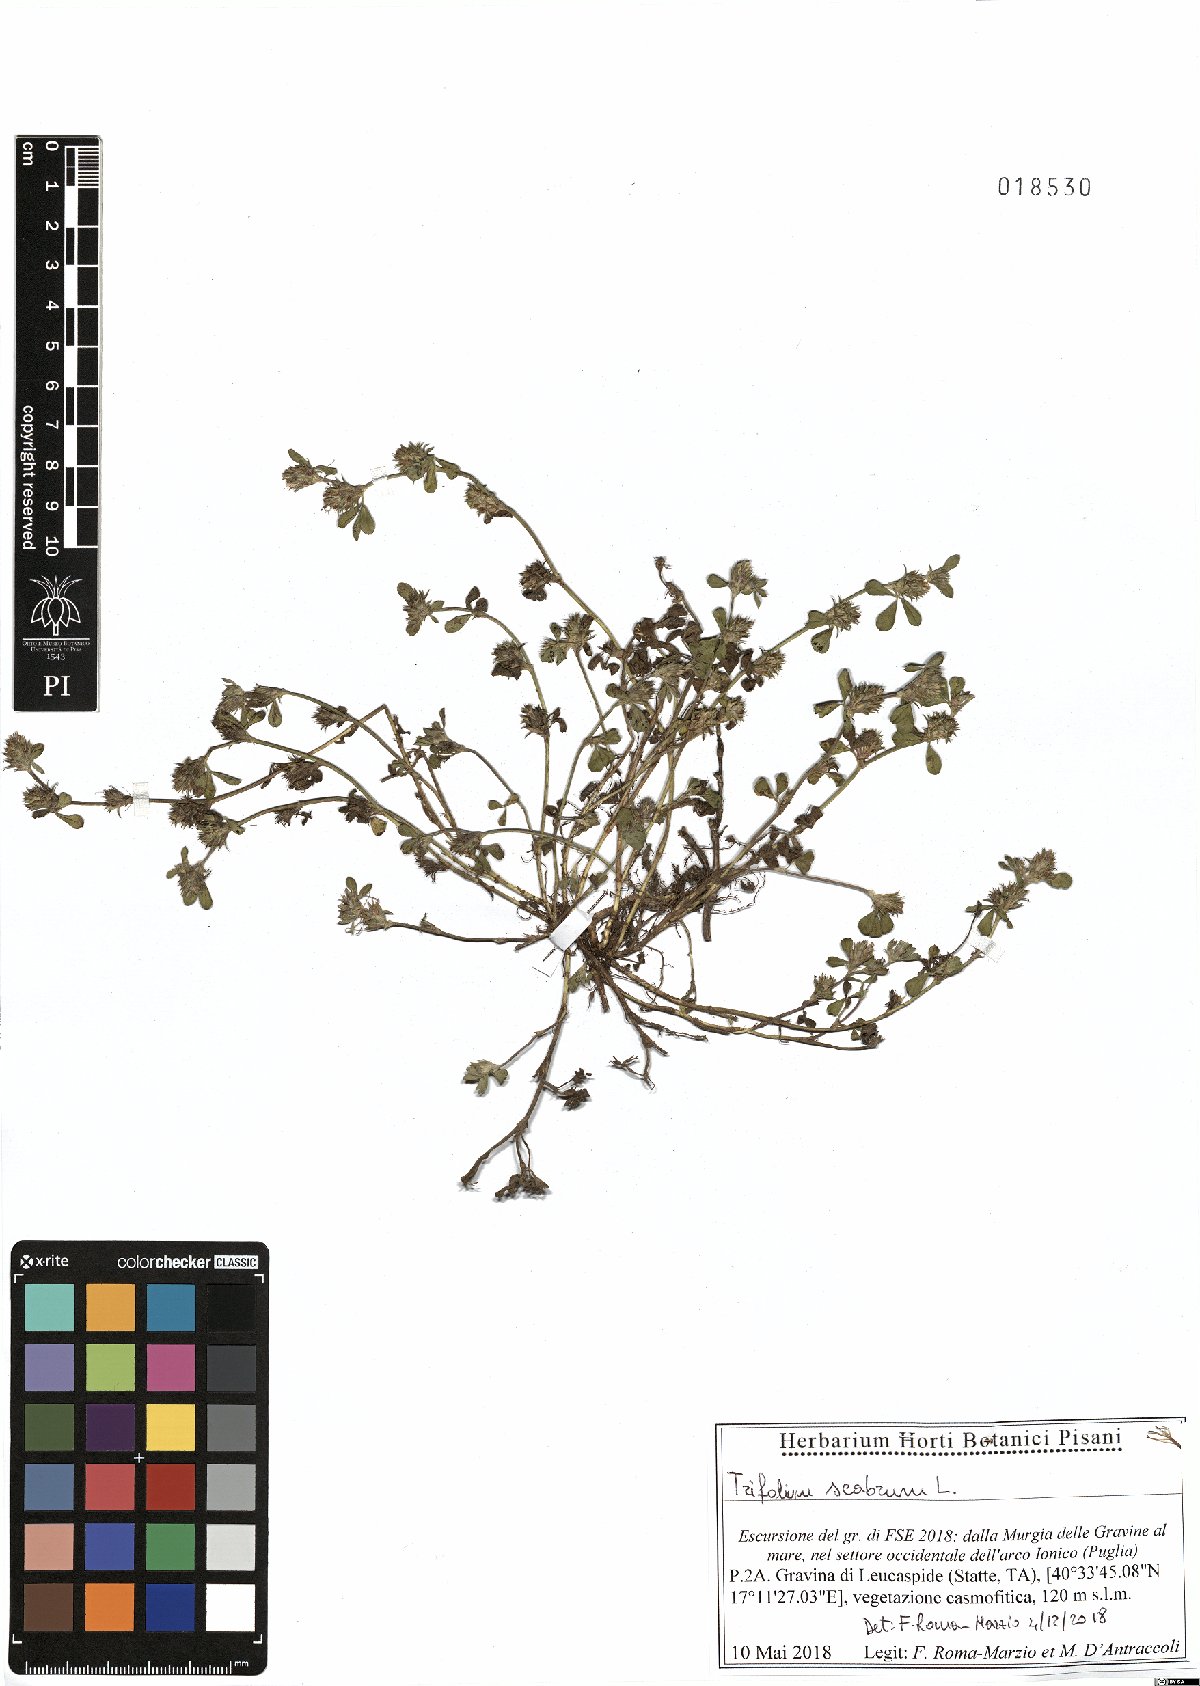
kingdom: Plantae
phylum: Tracheophyta
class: Magnoliopsida
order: Fabales
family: Fabaceae
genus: Trifolium
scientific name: Trifolium scabrum
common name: Rough clover
